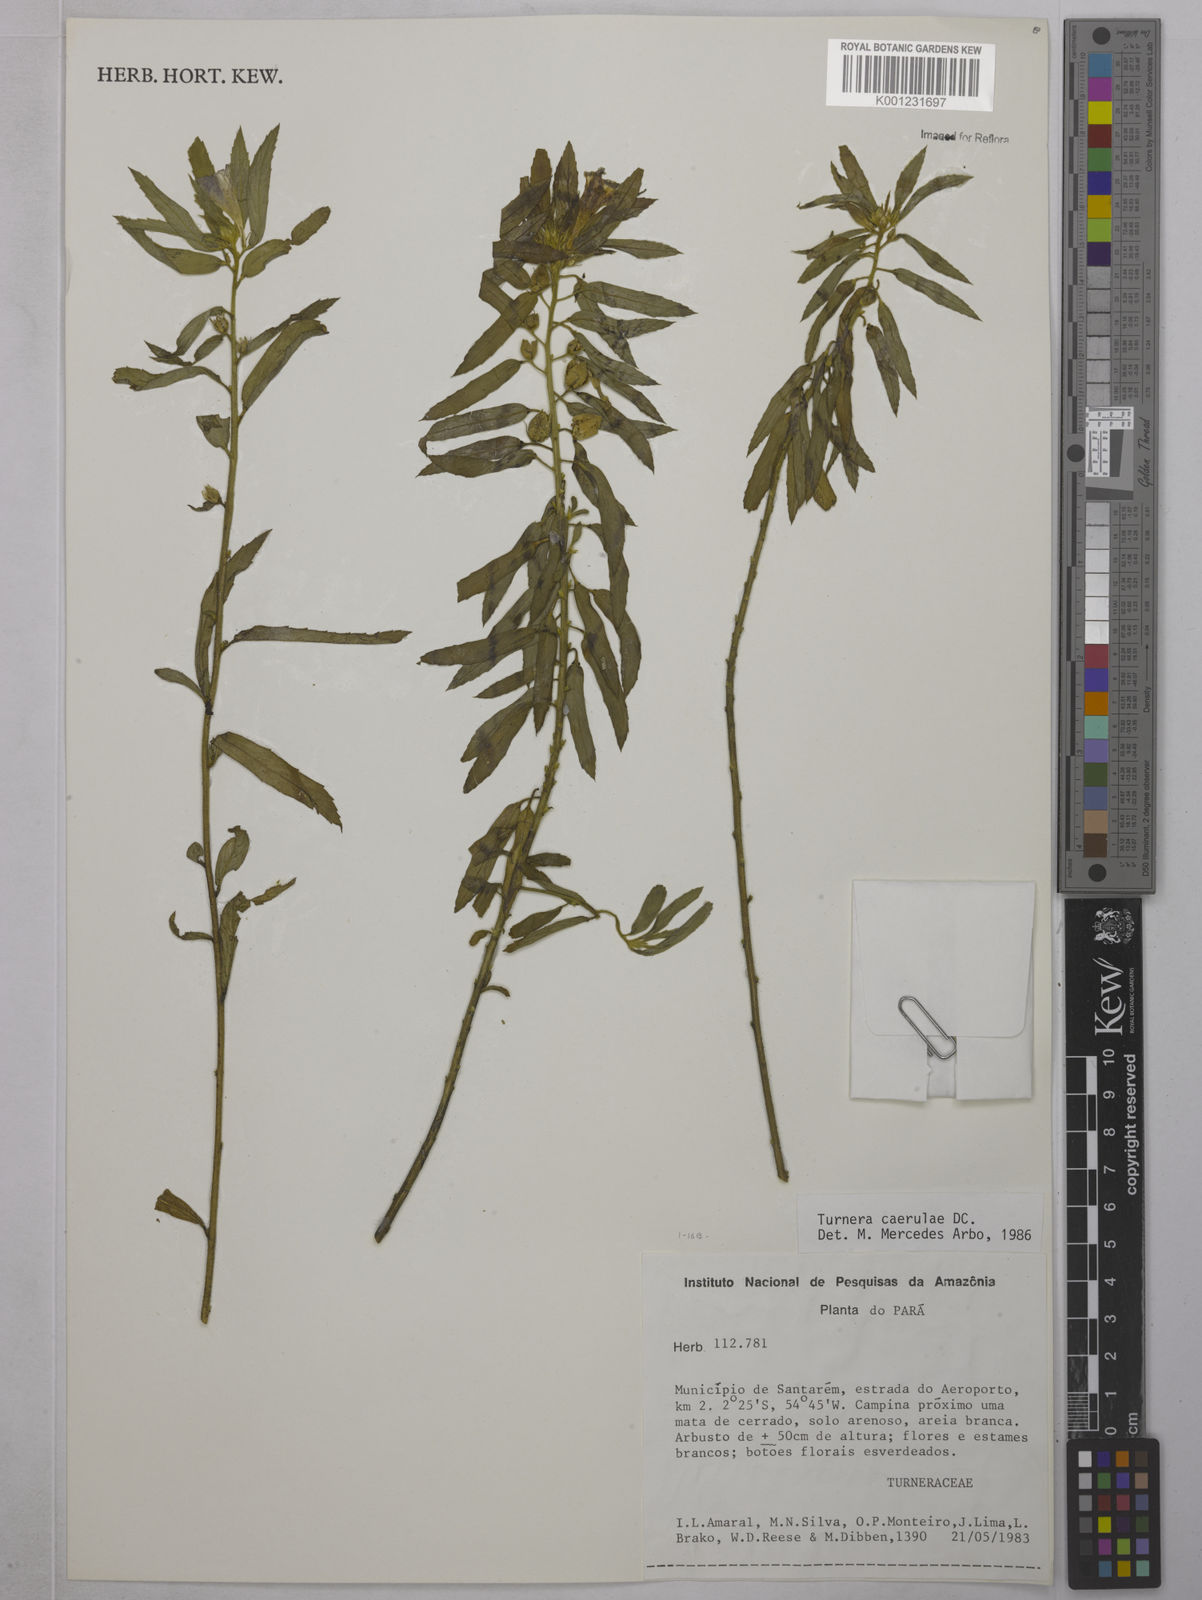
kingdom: Plantae
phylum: Tracheophyta
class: Magnoliopsida
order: Malpighiales
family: Turneraceae
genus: Turnera
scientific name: Turnera
